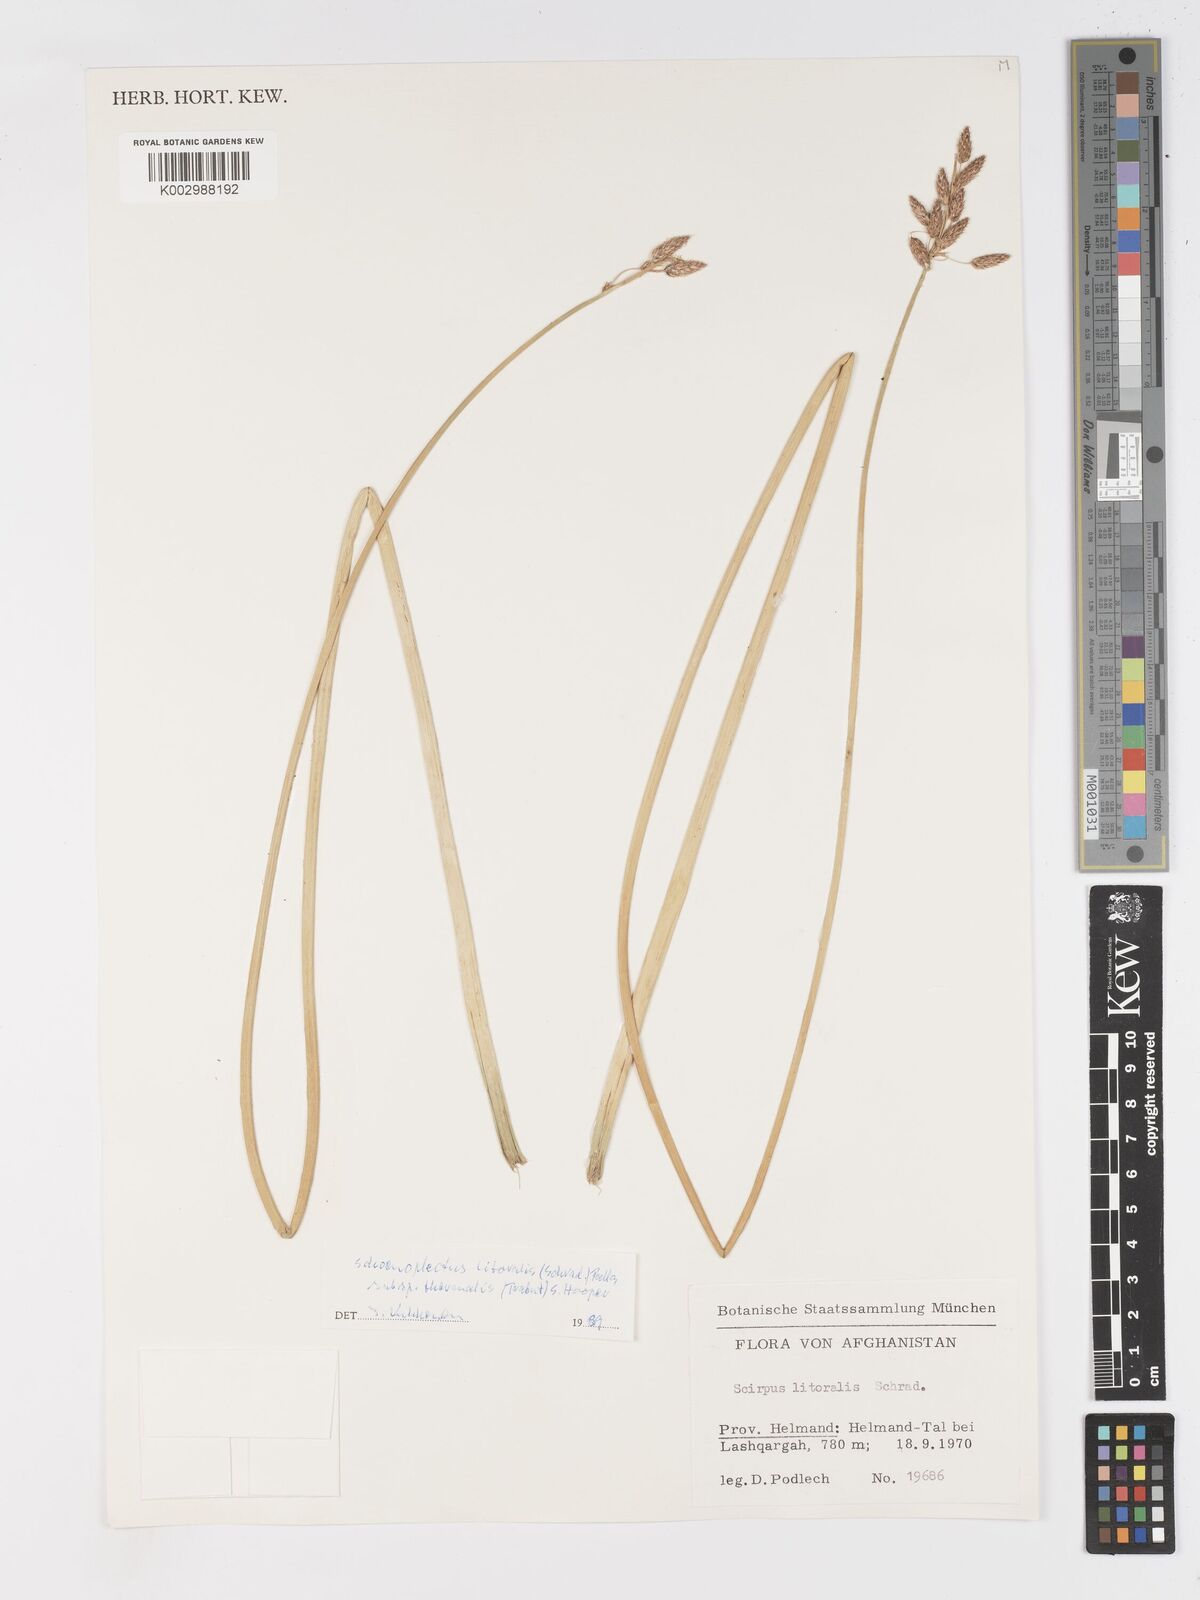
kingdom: Plantae
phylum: Tracheophyta
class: Liliopsida
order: Poales
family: Cyperaceae
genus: Schoenoplectus
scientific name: Schoenoplectus litoralis
